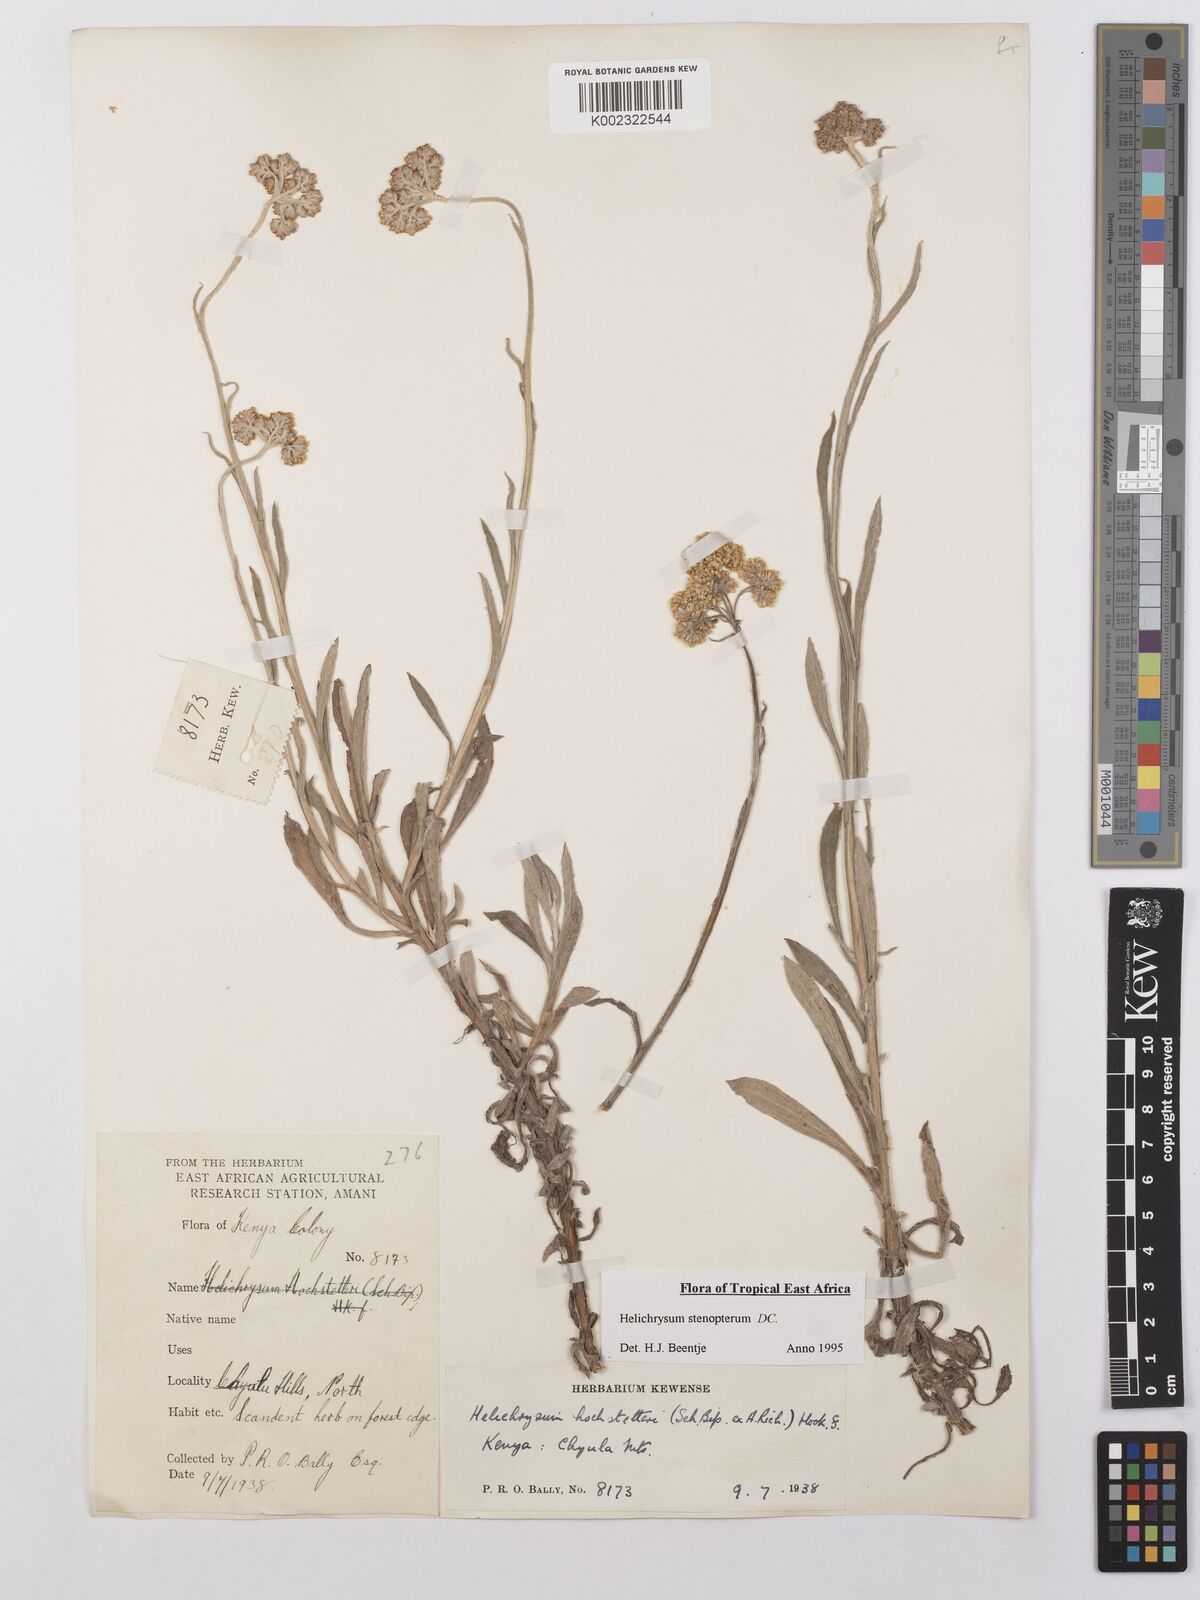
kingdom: Plantae
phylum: Tracheophyta
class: Magnoliopsida
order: Asterales
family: Asteraceae
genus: Helichrysum
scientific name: Helichrysum stenopterum
